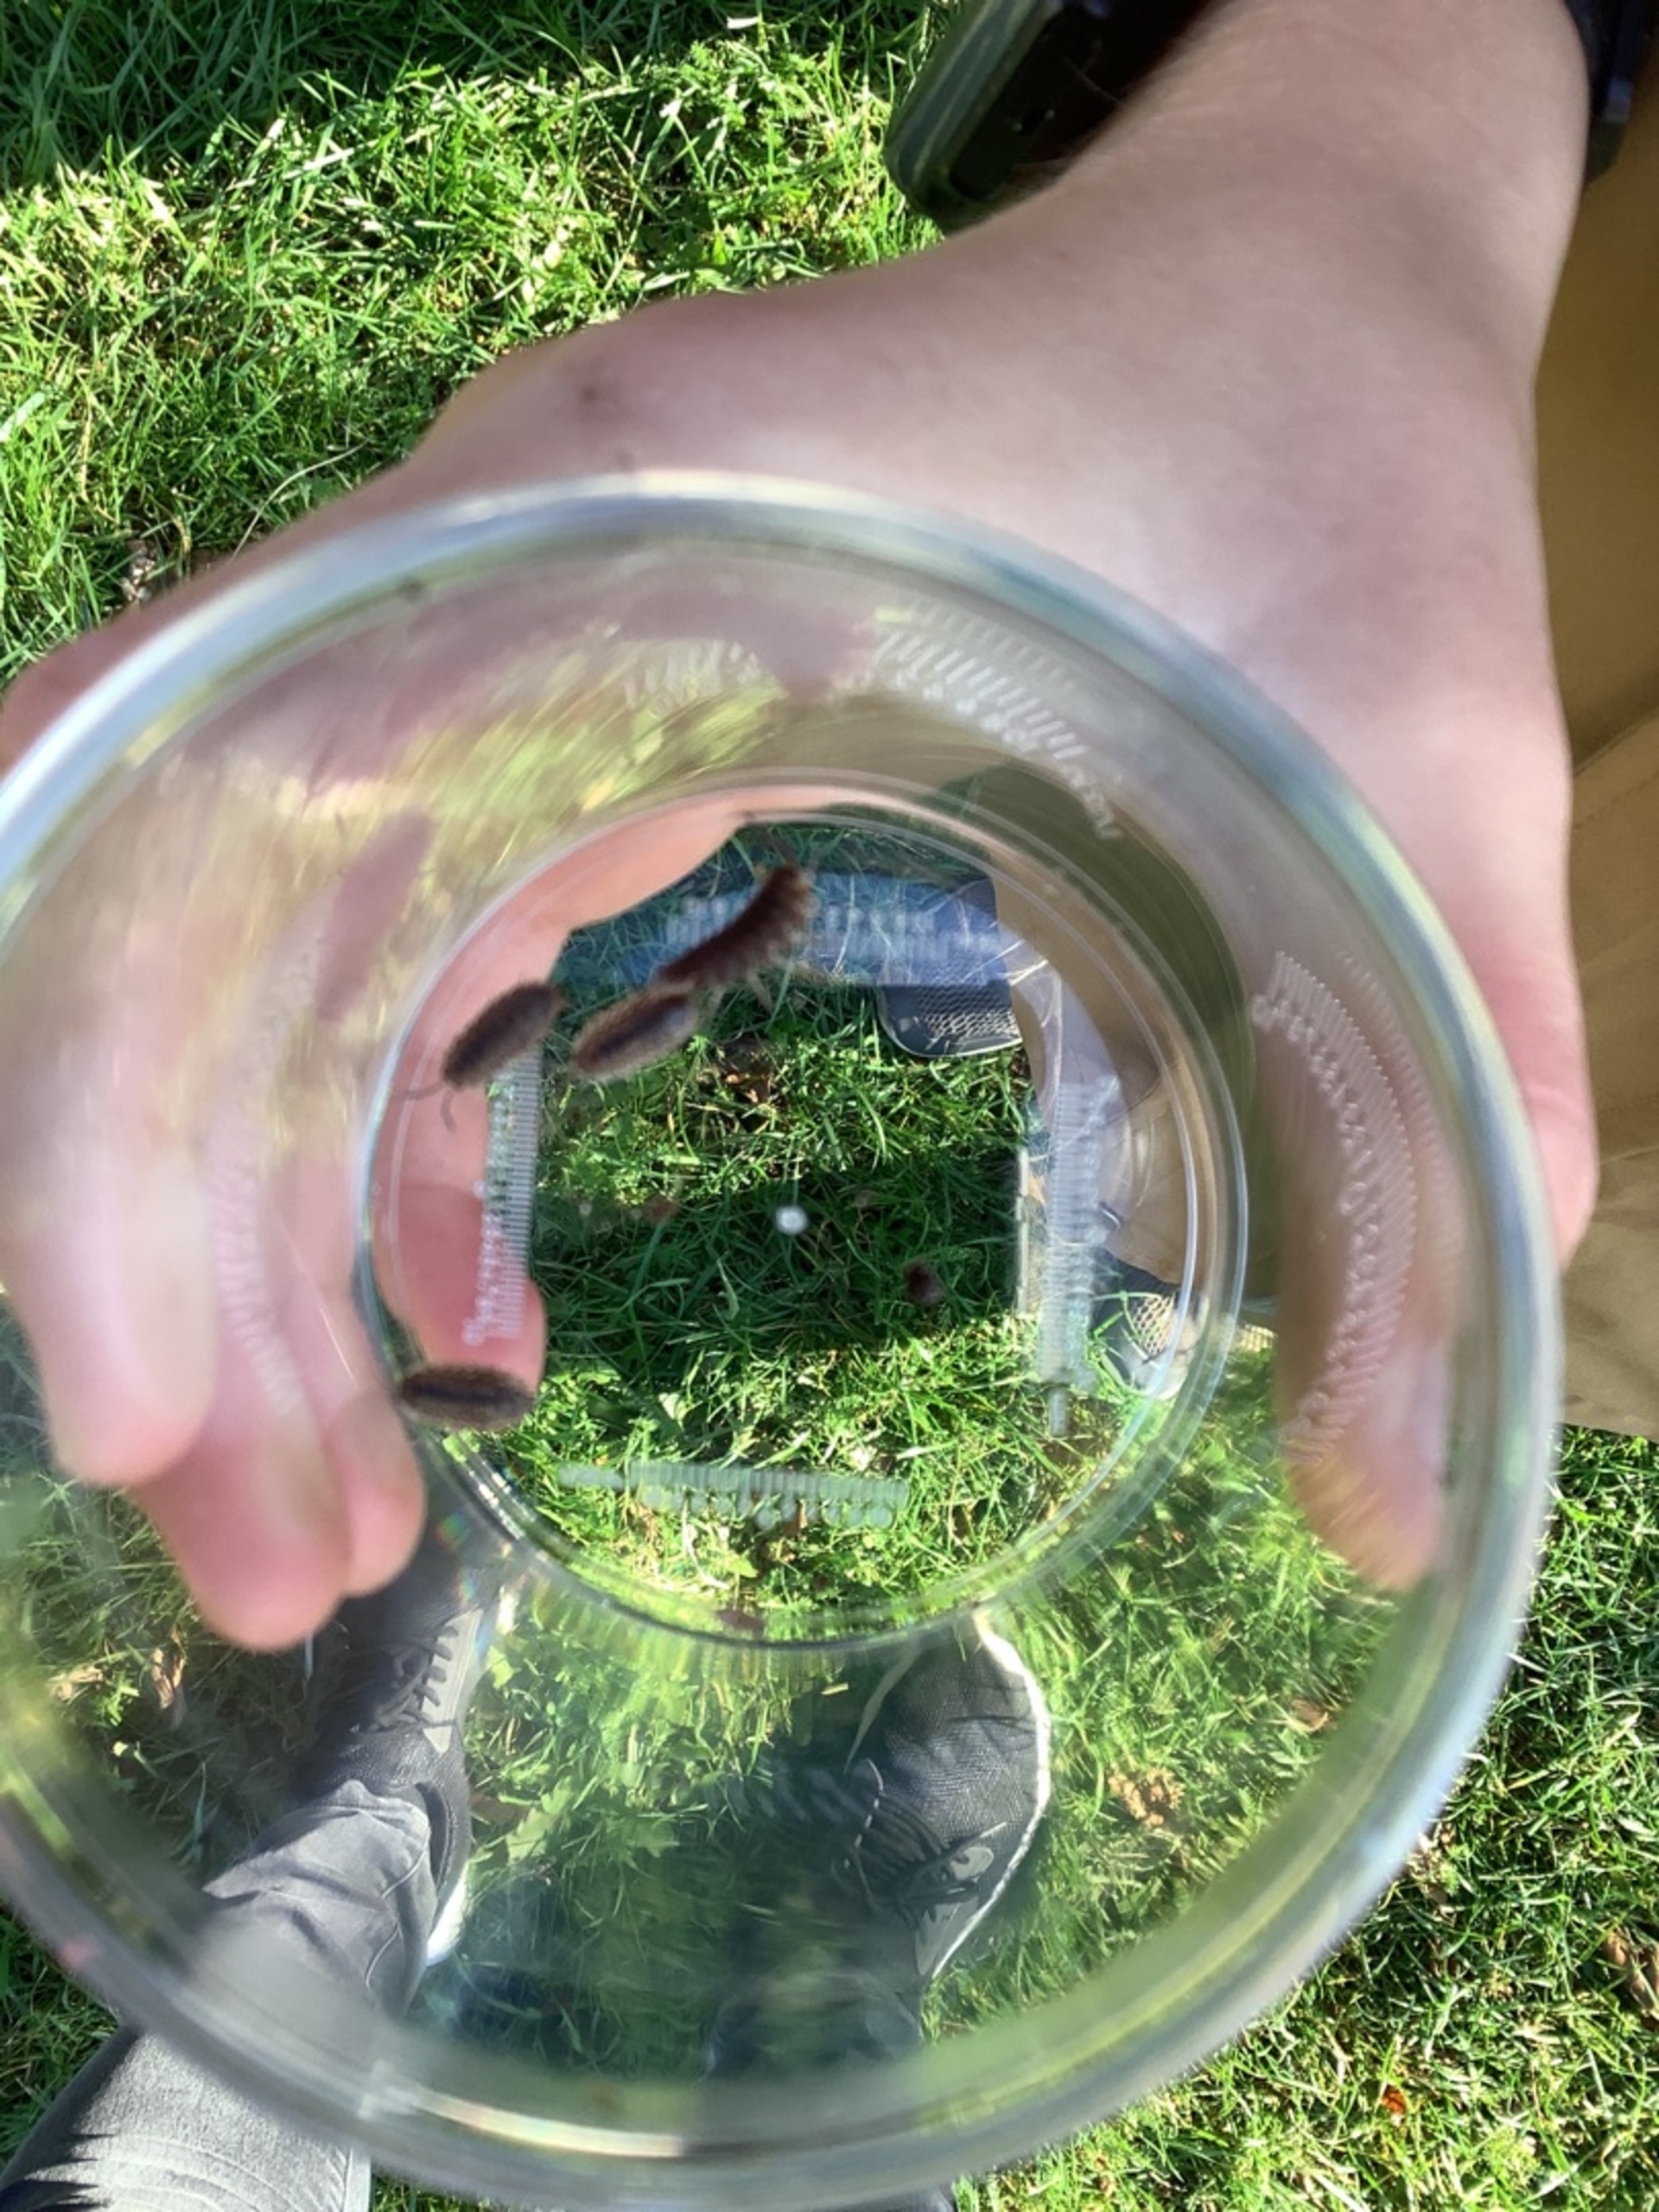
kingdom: Animalia
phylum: Arthropoda
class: Malacostraca
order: Isopoda
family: Porcellionidae
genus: Porcellio
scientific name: Porcellio scaber
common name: Grå bænkebider
